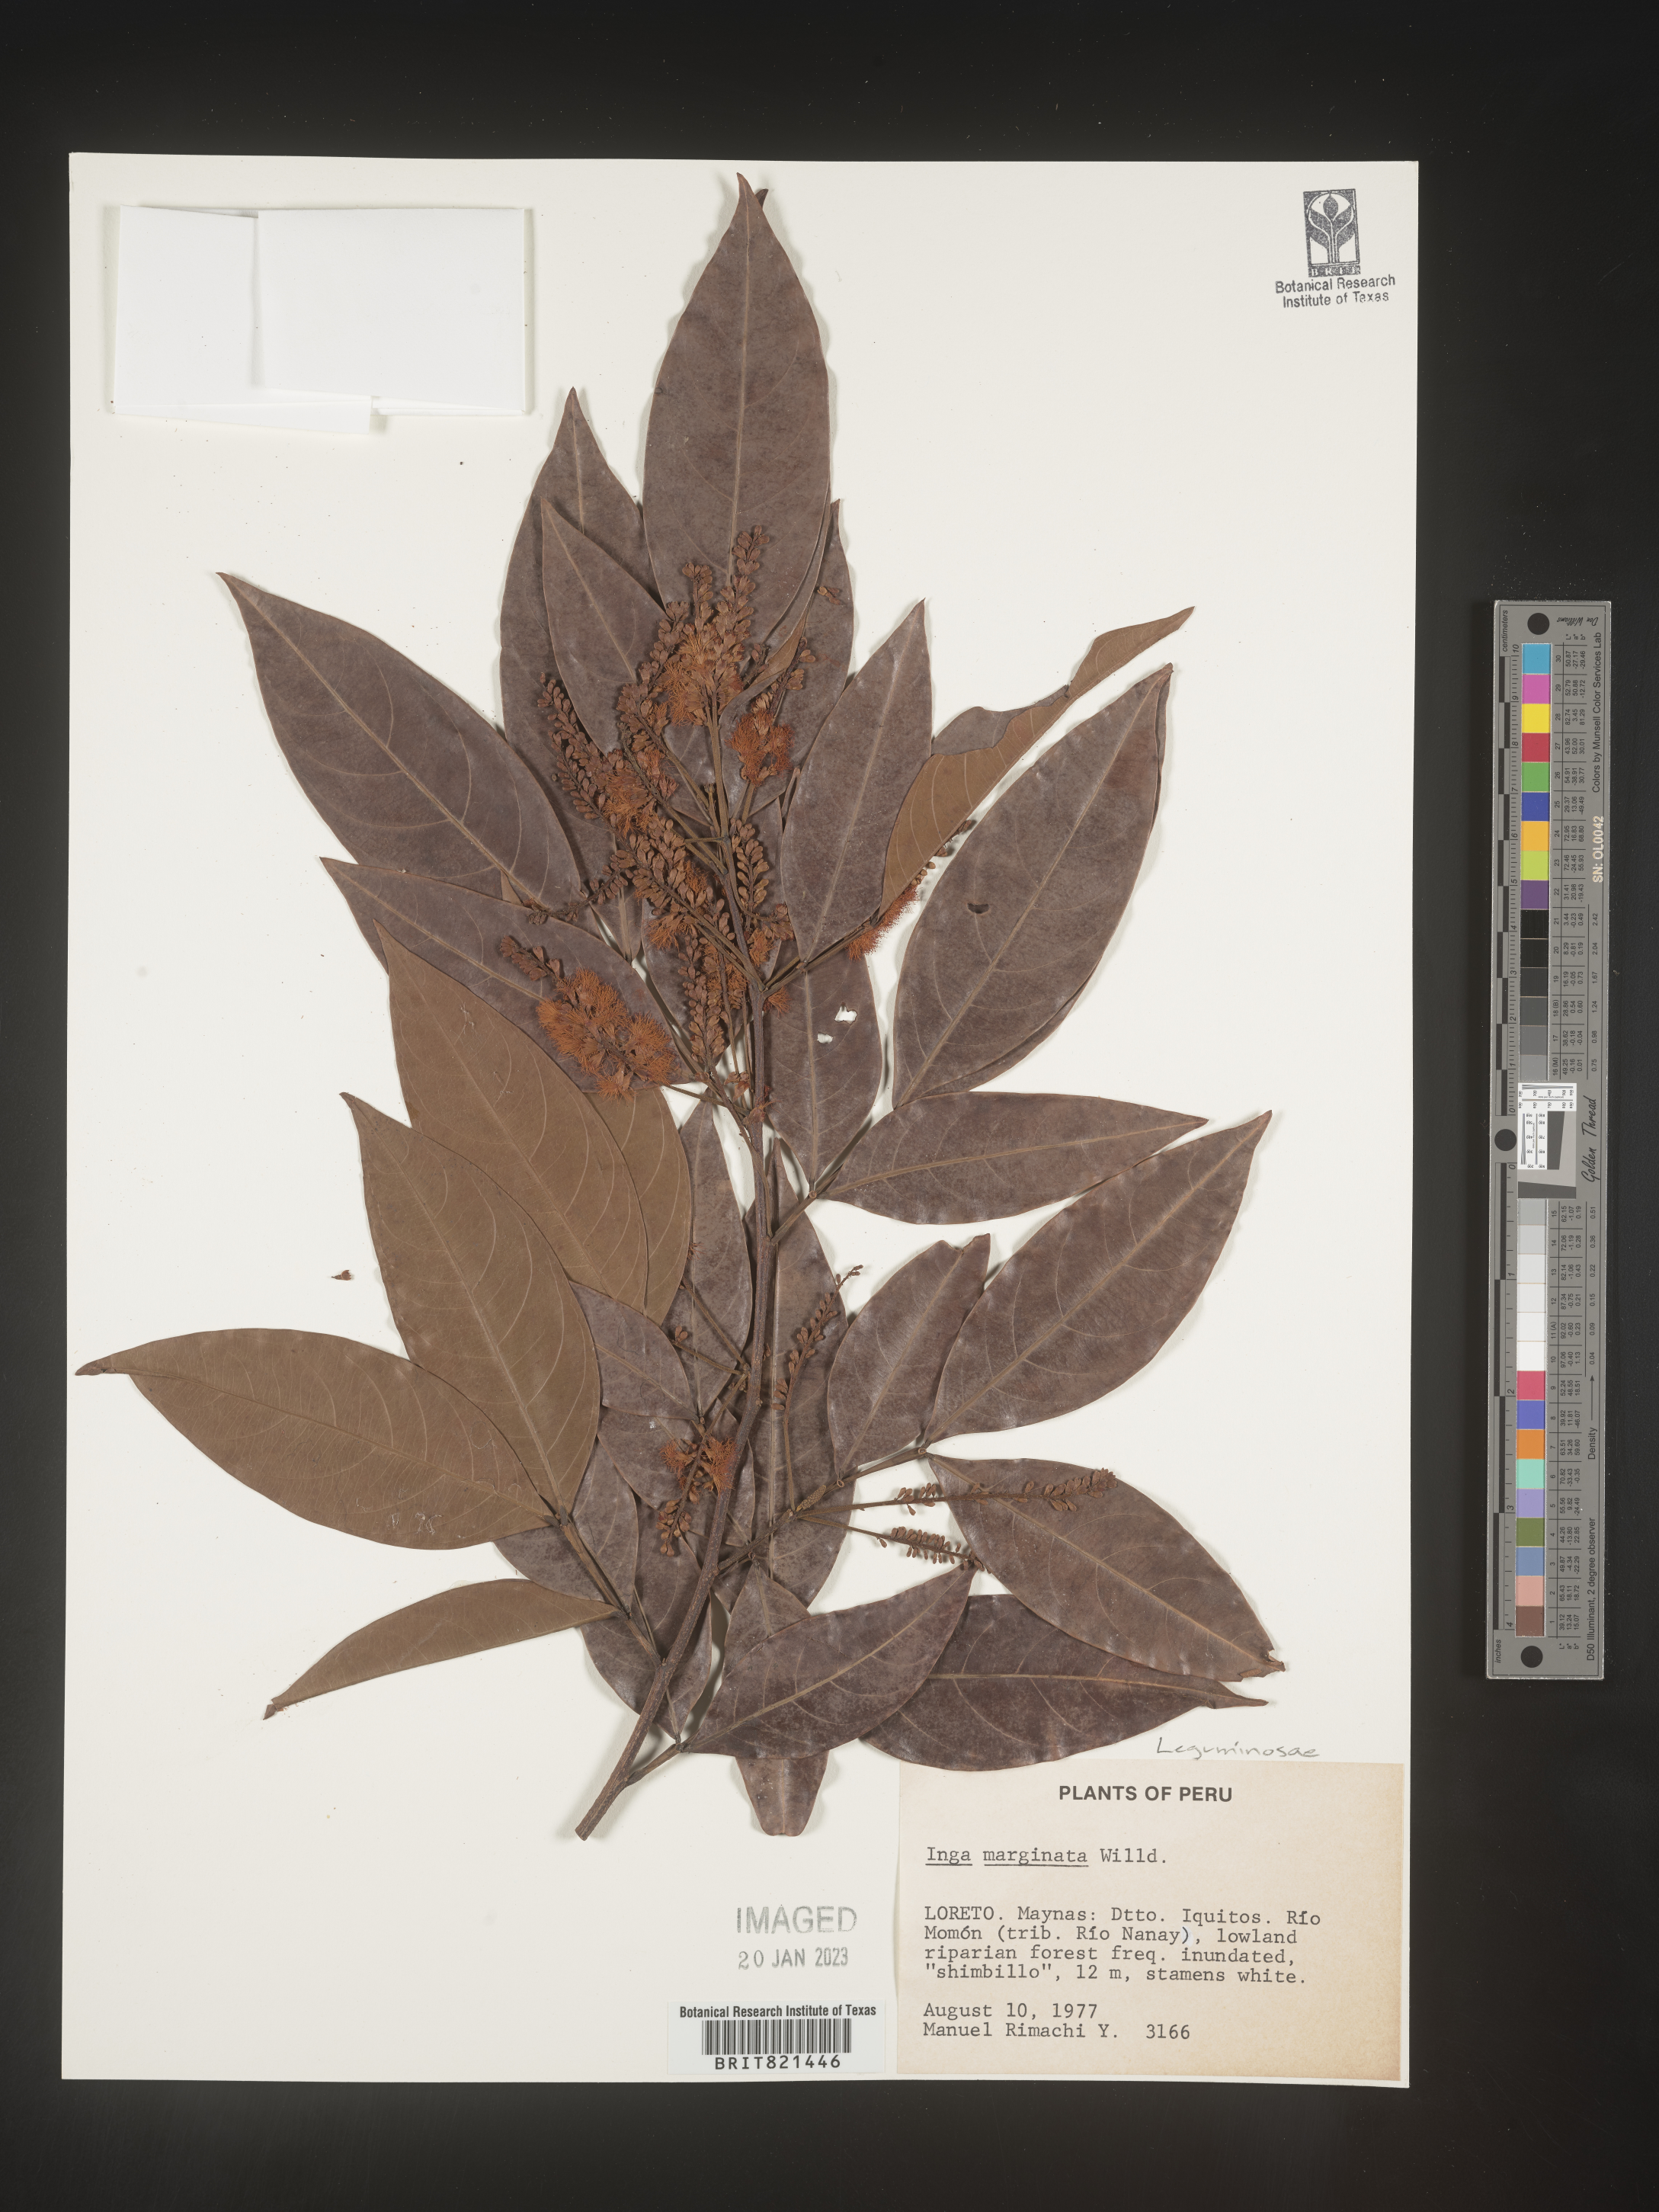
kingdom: Plantae
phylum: Tracheophyta
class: Magnoliopsida
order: Fabales
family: Fabaceae
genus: Inga
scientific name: Inga
